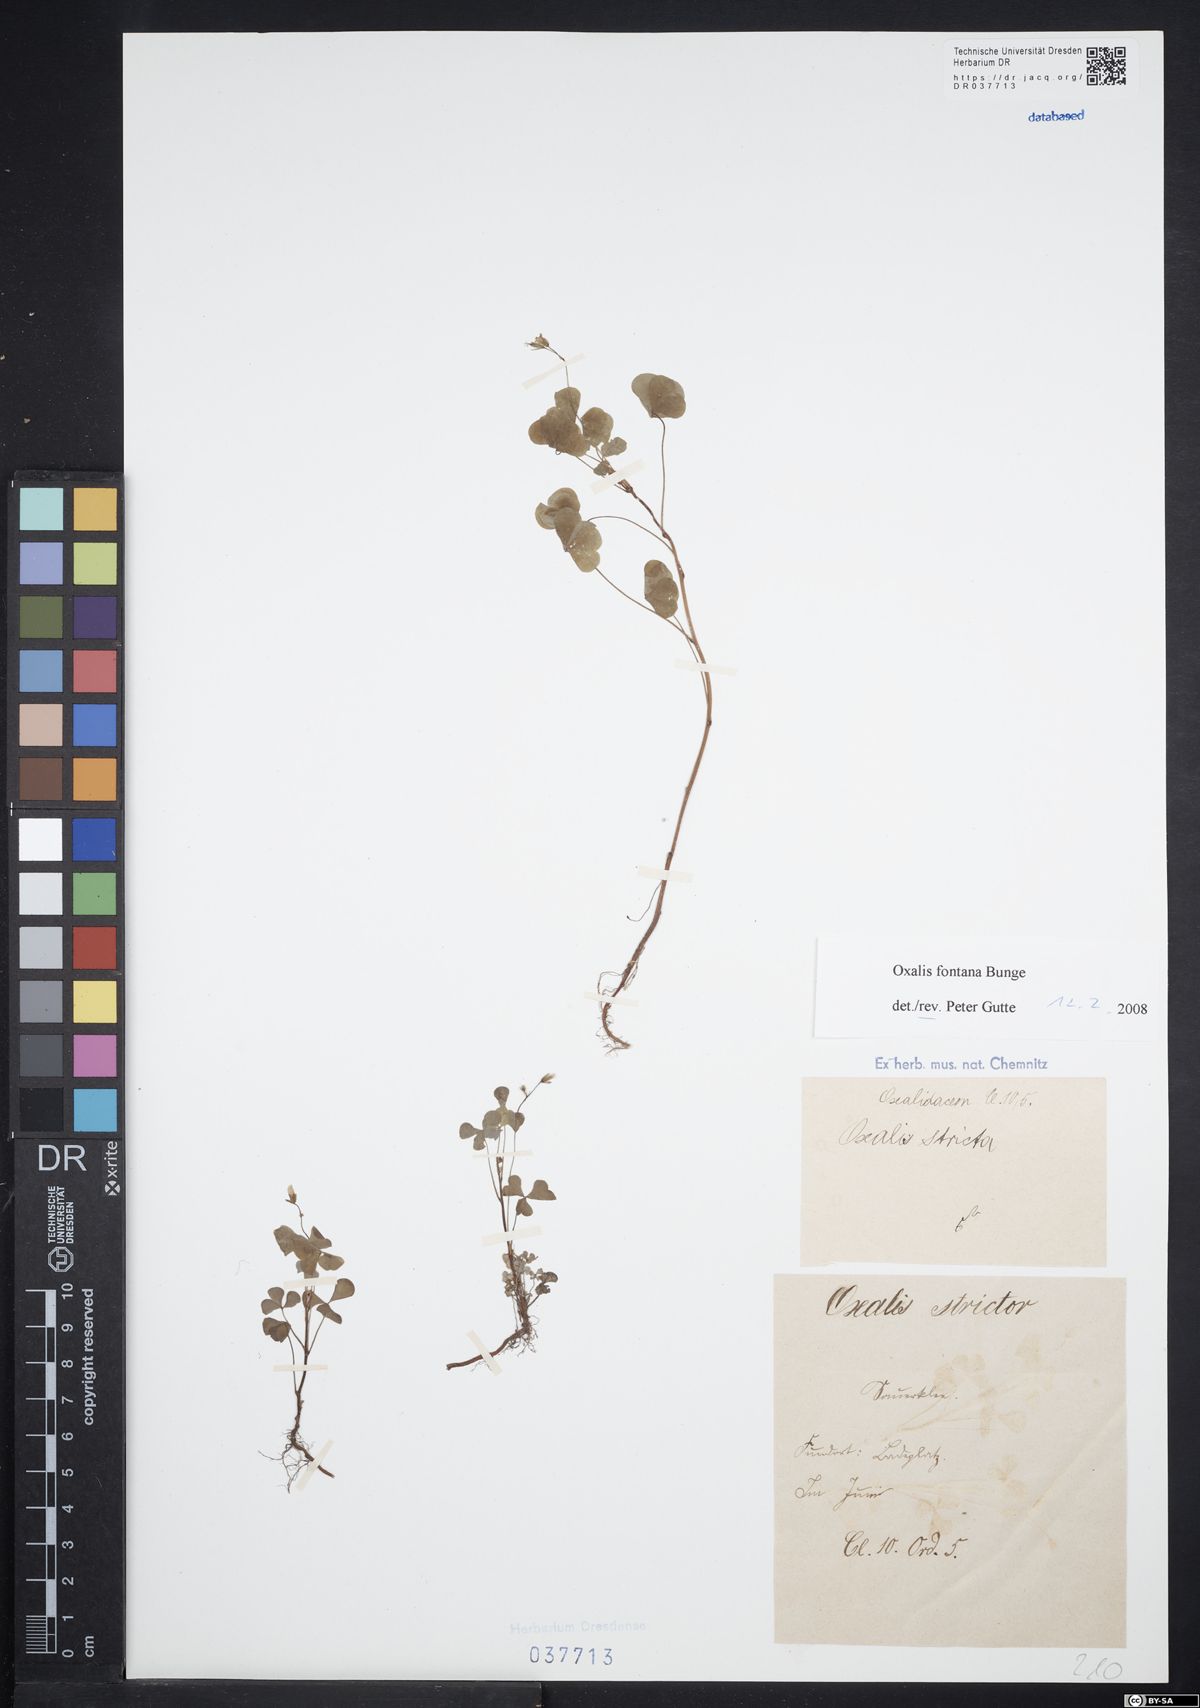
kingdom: Plantae
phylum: Tracheophyta
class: Magnoliopsida
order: Oxalidales
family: Oxalidaceae
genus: Oxalis
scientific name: Oxalis stricta
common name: Upright yellow-sorrel
